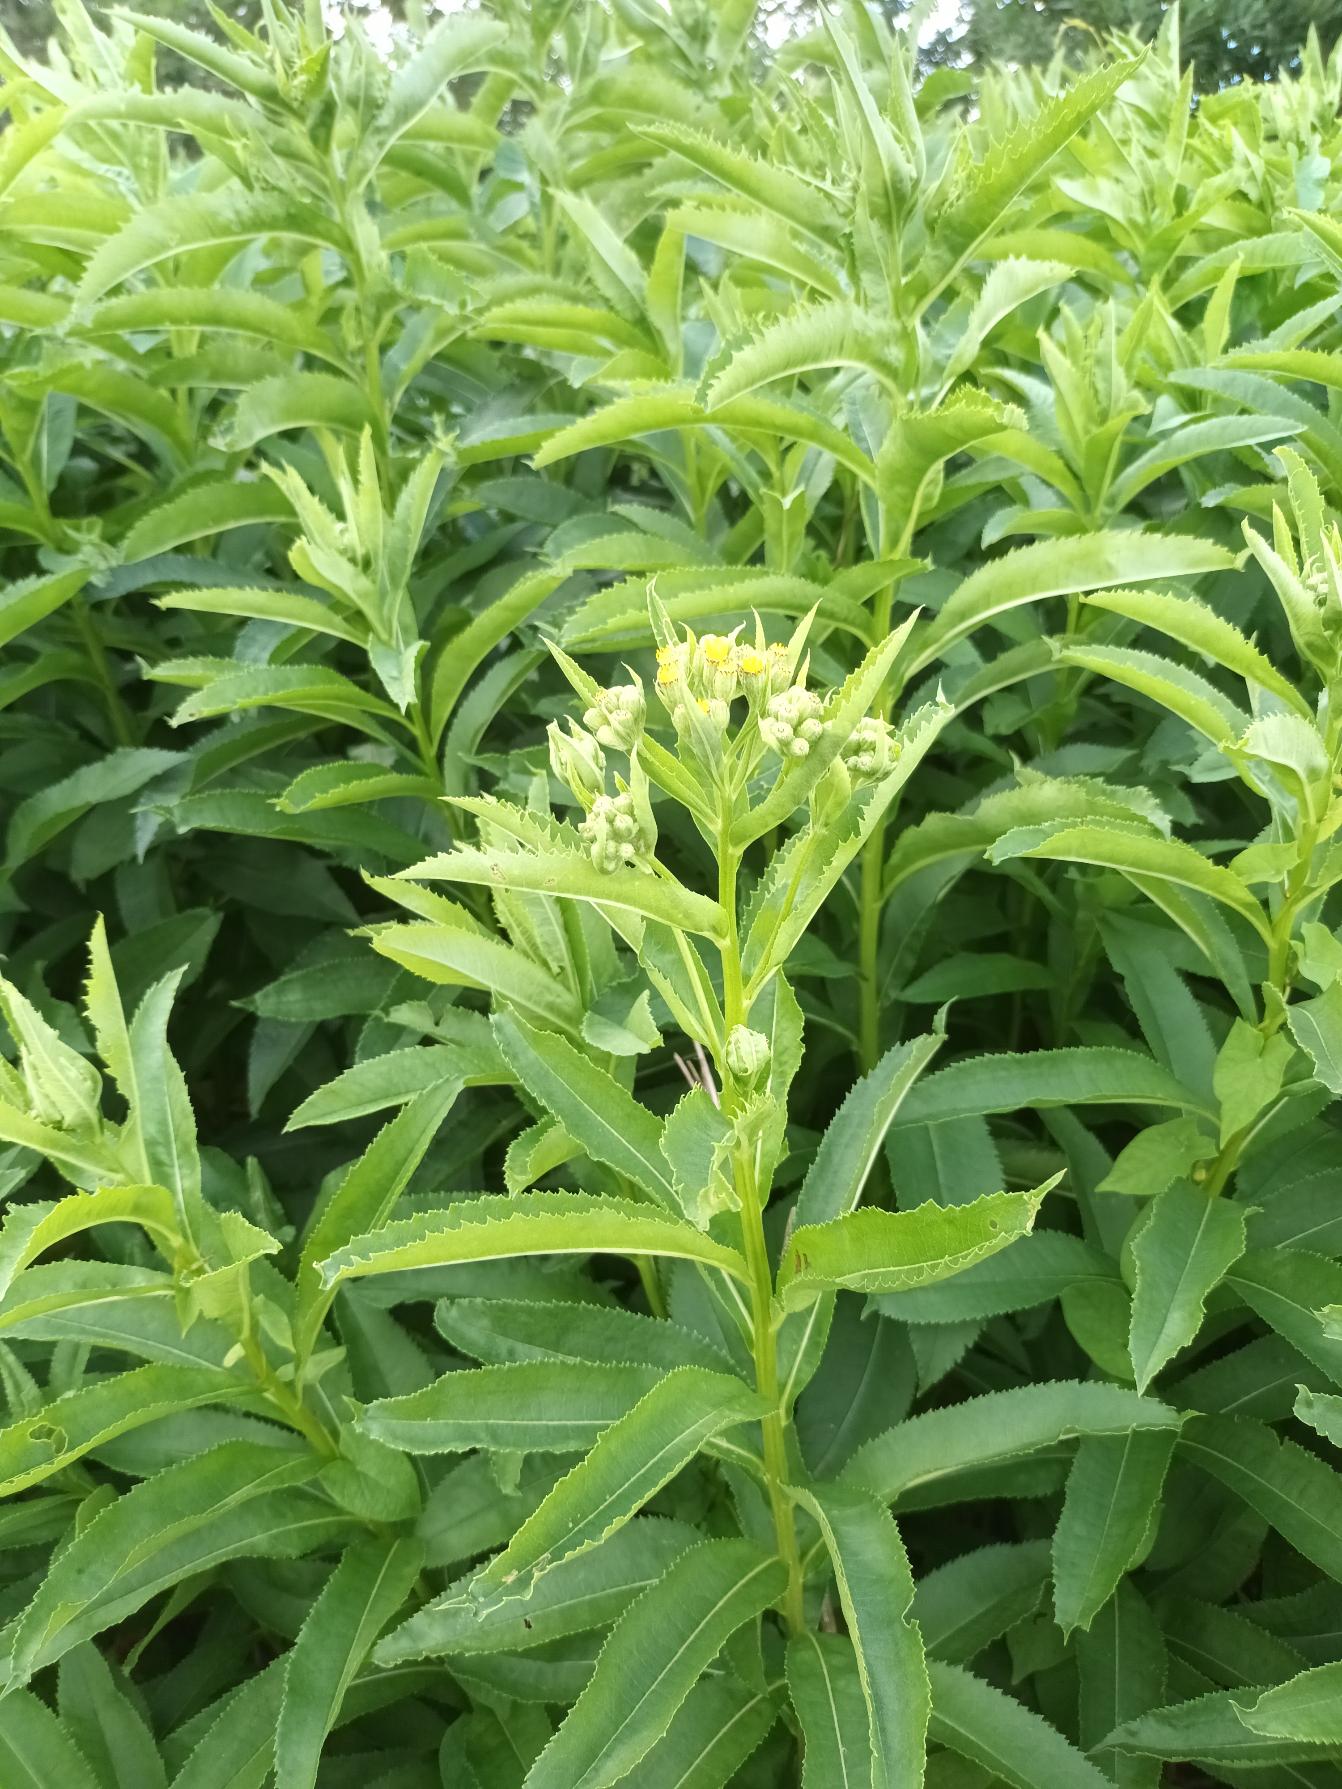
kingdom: Plantae
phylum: Tracheophyta
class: Magnoliopsida
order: Asterales
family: Asteraceae
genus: Senecio
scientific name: Senecio sarracenicus
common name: Saracenisk brandbæger
